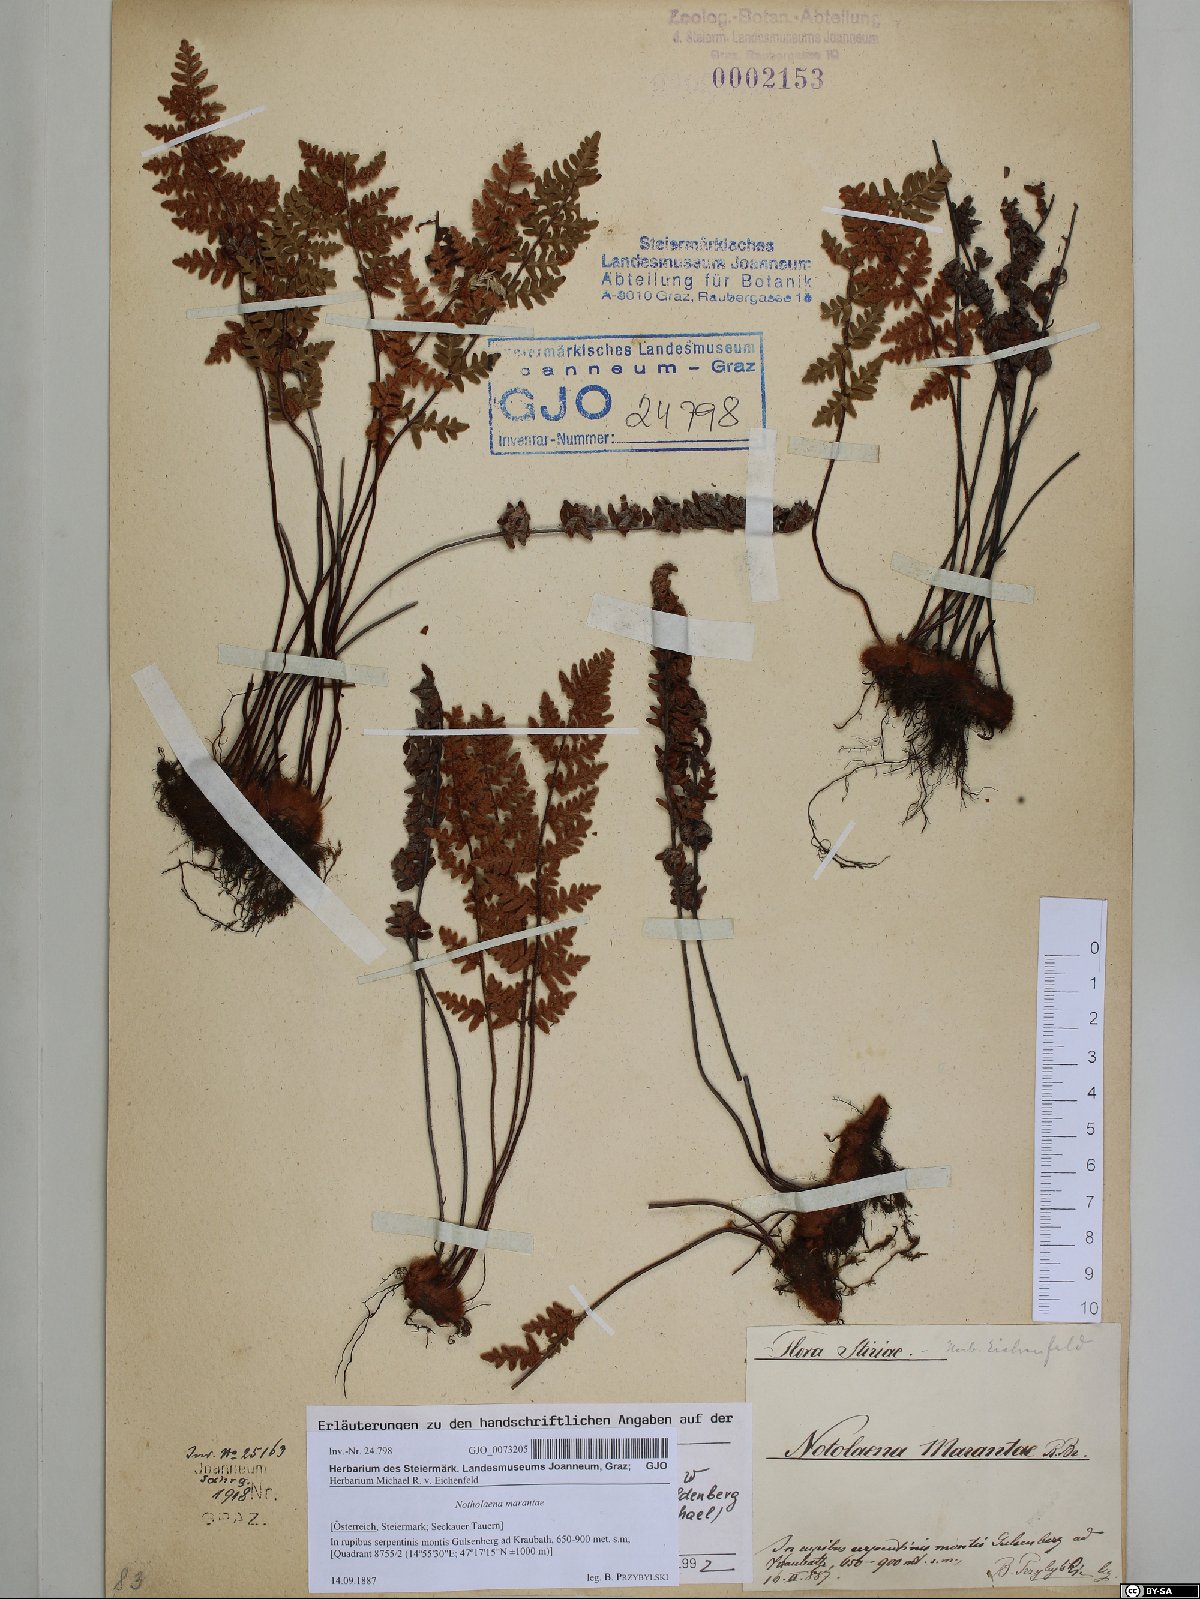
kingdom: Plantae
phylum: Tracheophyta
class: Polypodiopsida
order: Polypodiales
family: Pteridaceae
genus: Paragymnopteris
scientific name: Paragymnopteris marantae
